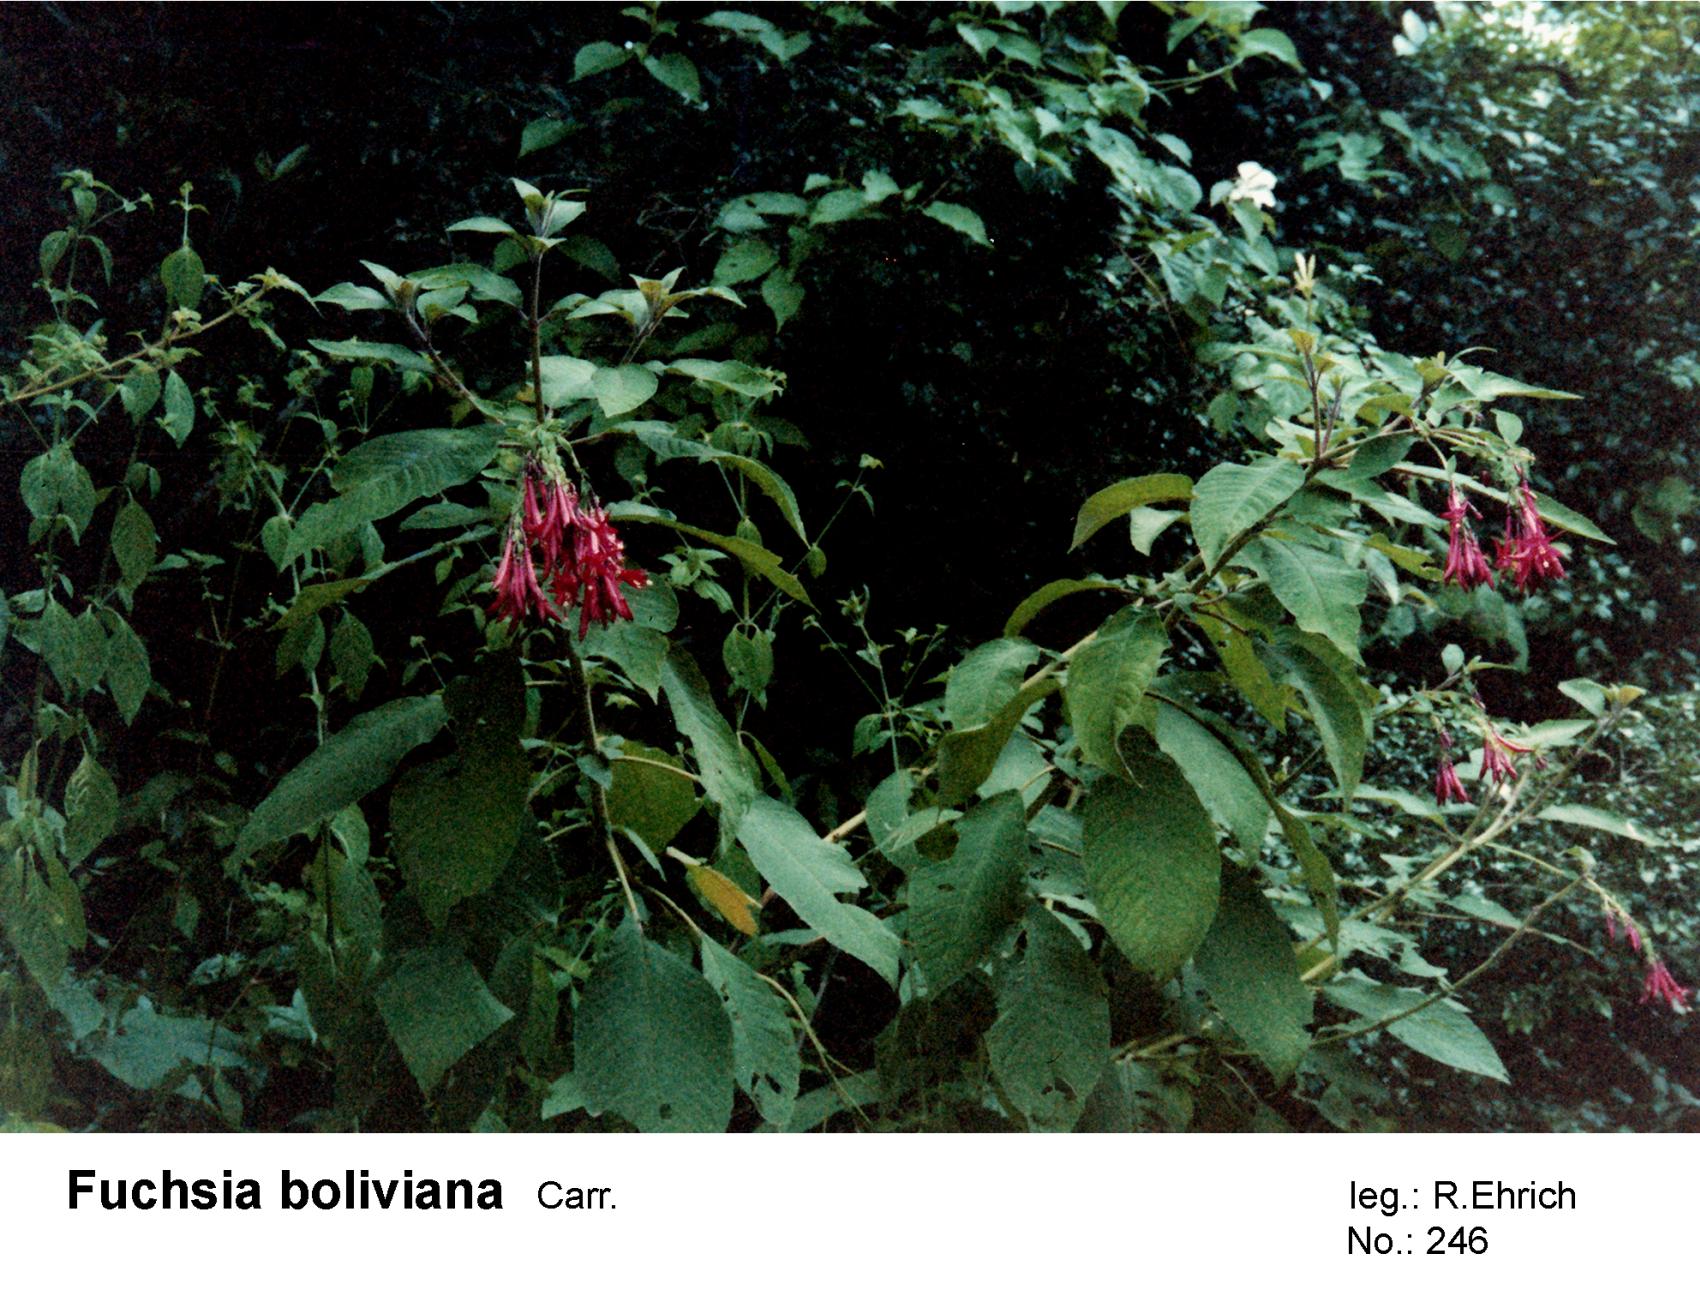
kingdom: Plantae
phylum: Tracheophyta
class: Magnoliopsida
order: Myrtales
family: Onagraceae
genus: Fuchsia
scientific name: Fuchsia boliviana
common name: Bolivian fuchsia
